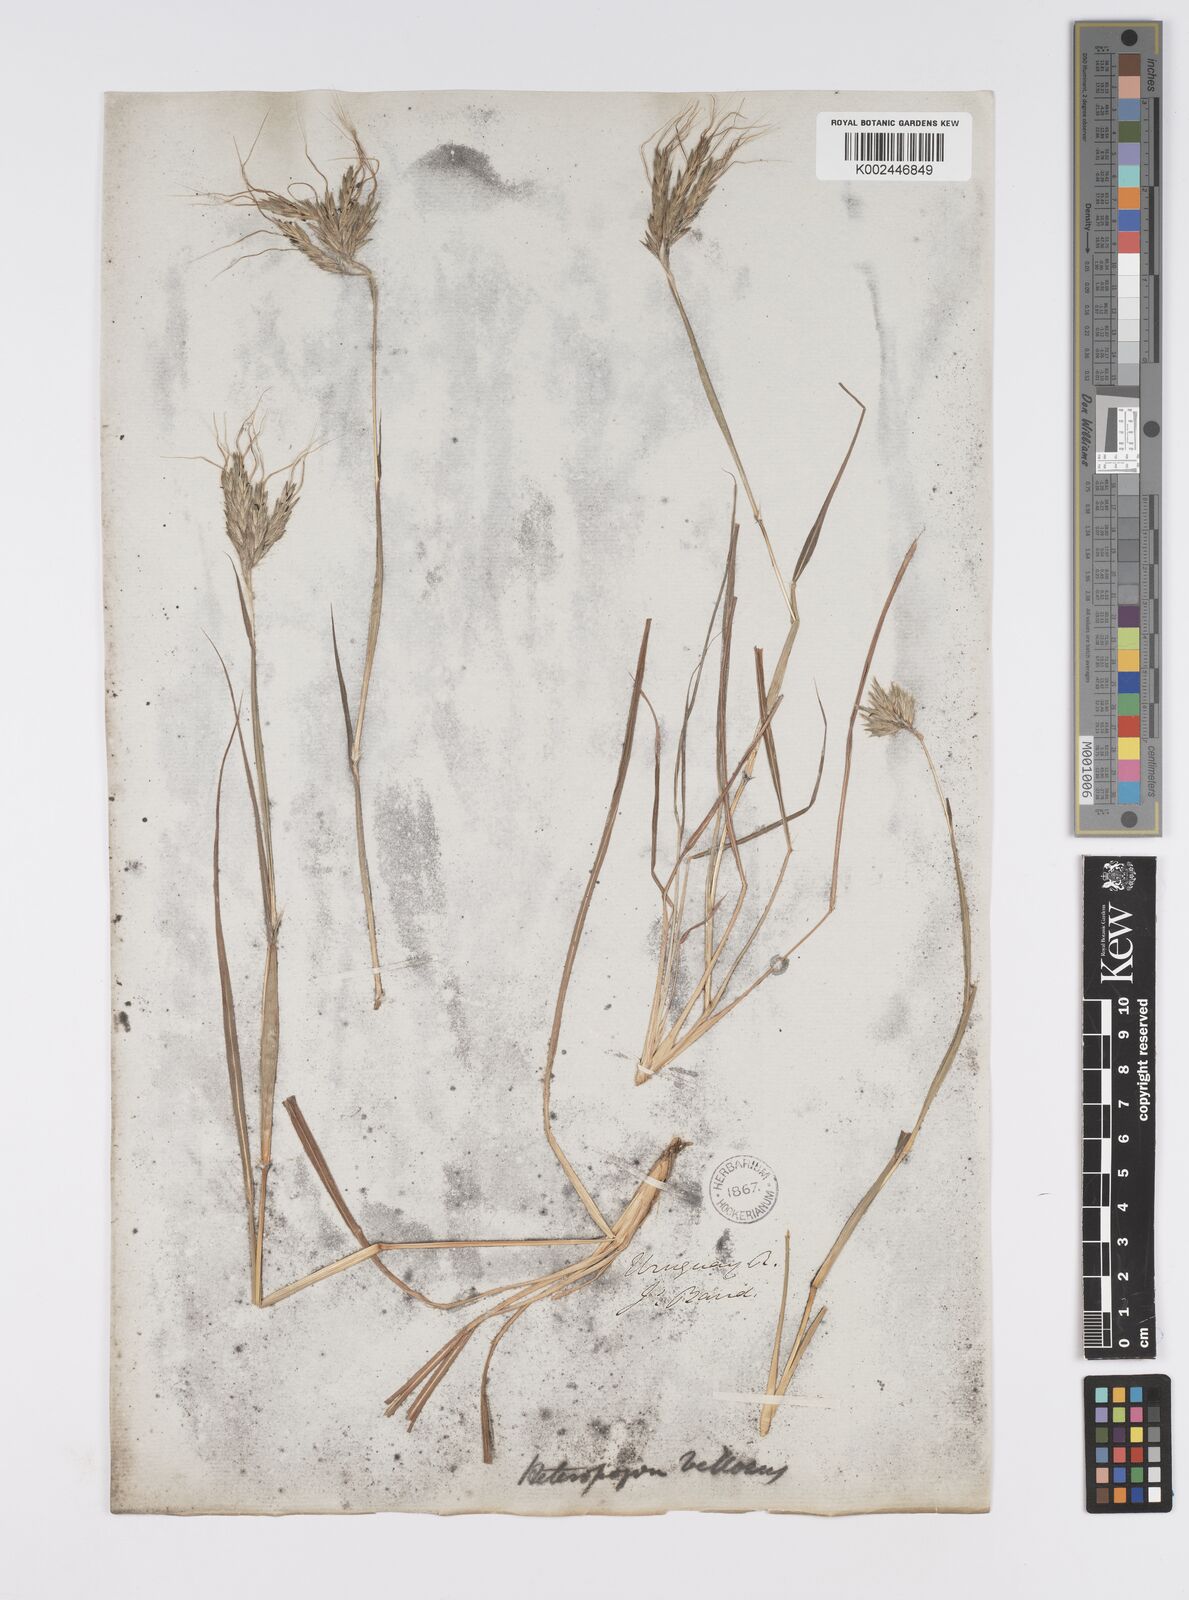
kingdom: Plantae
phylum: Tracheophyta
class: Liliopsida
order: Poales
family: Poaceae
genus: Agenium
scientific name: Agenium villosum
